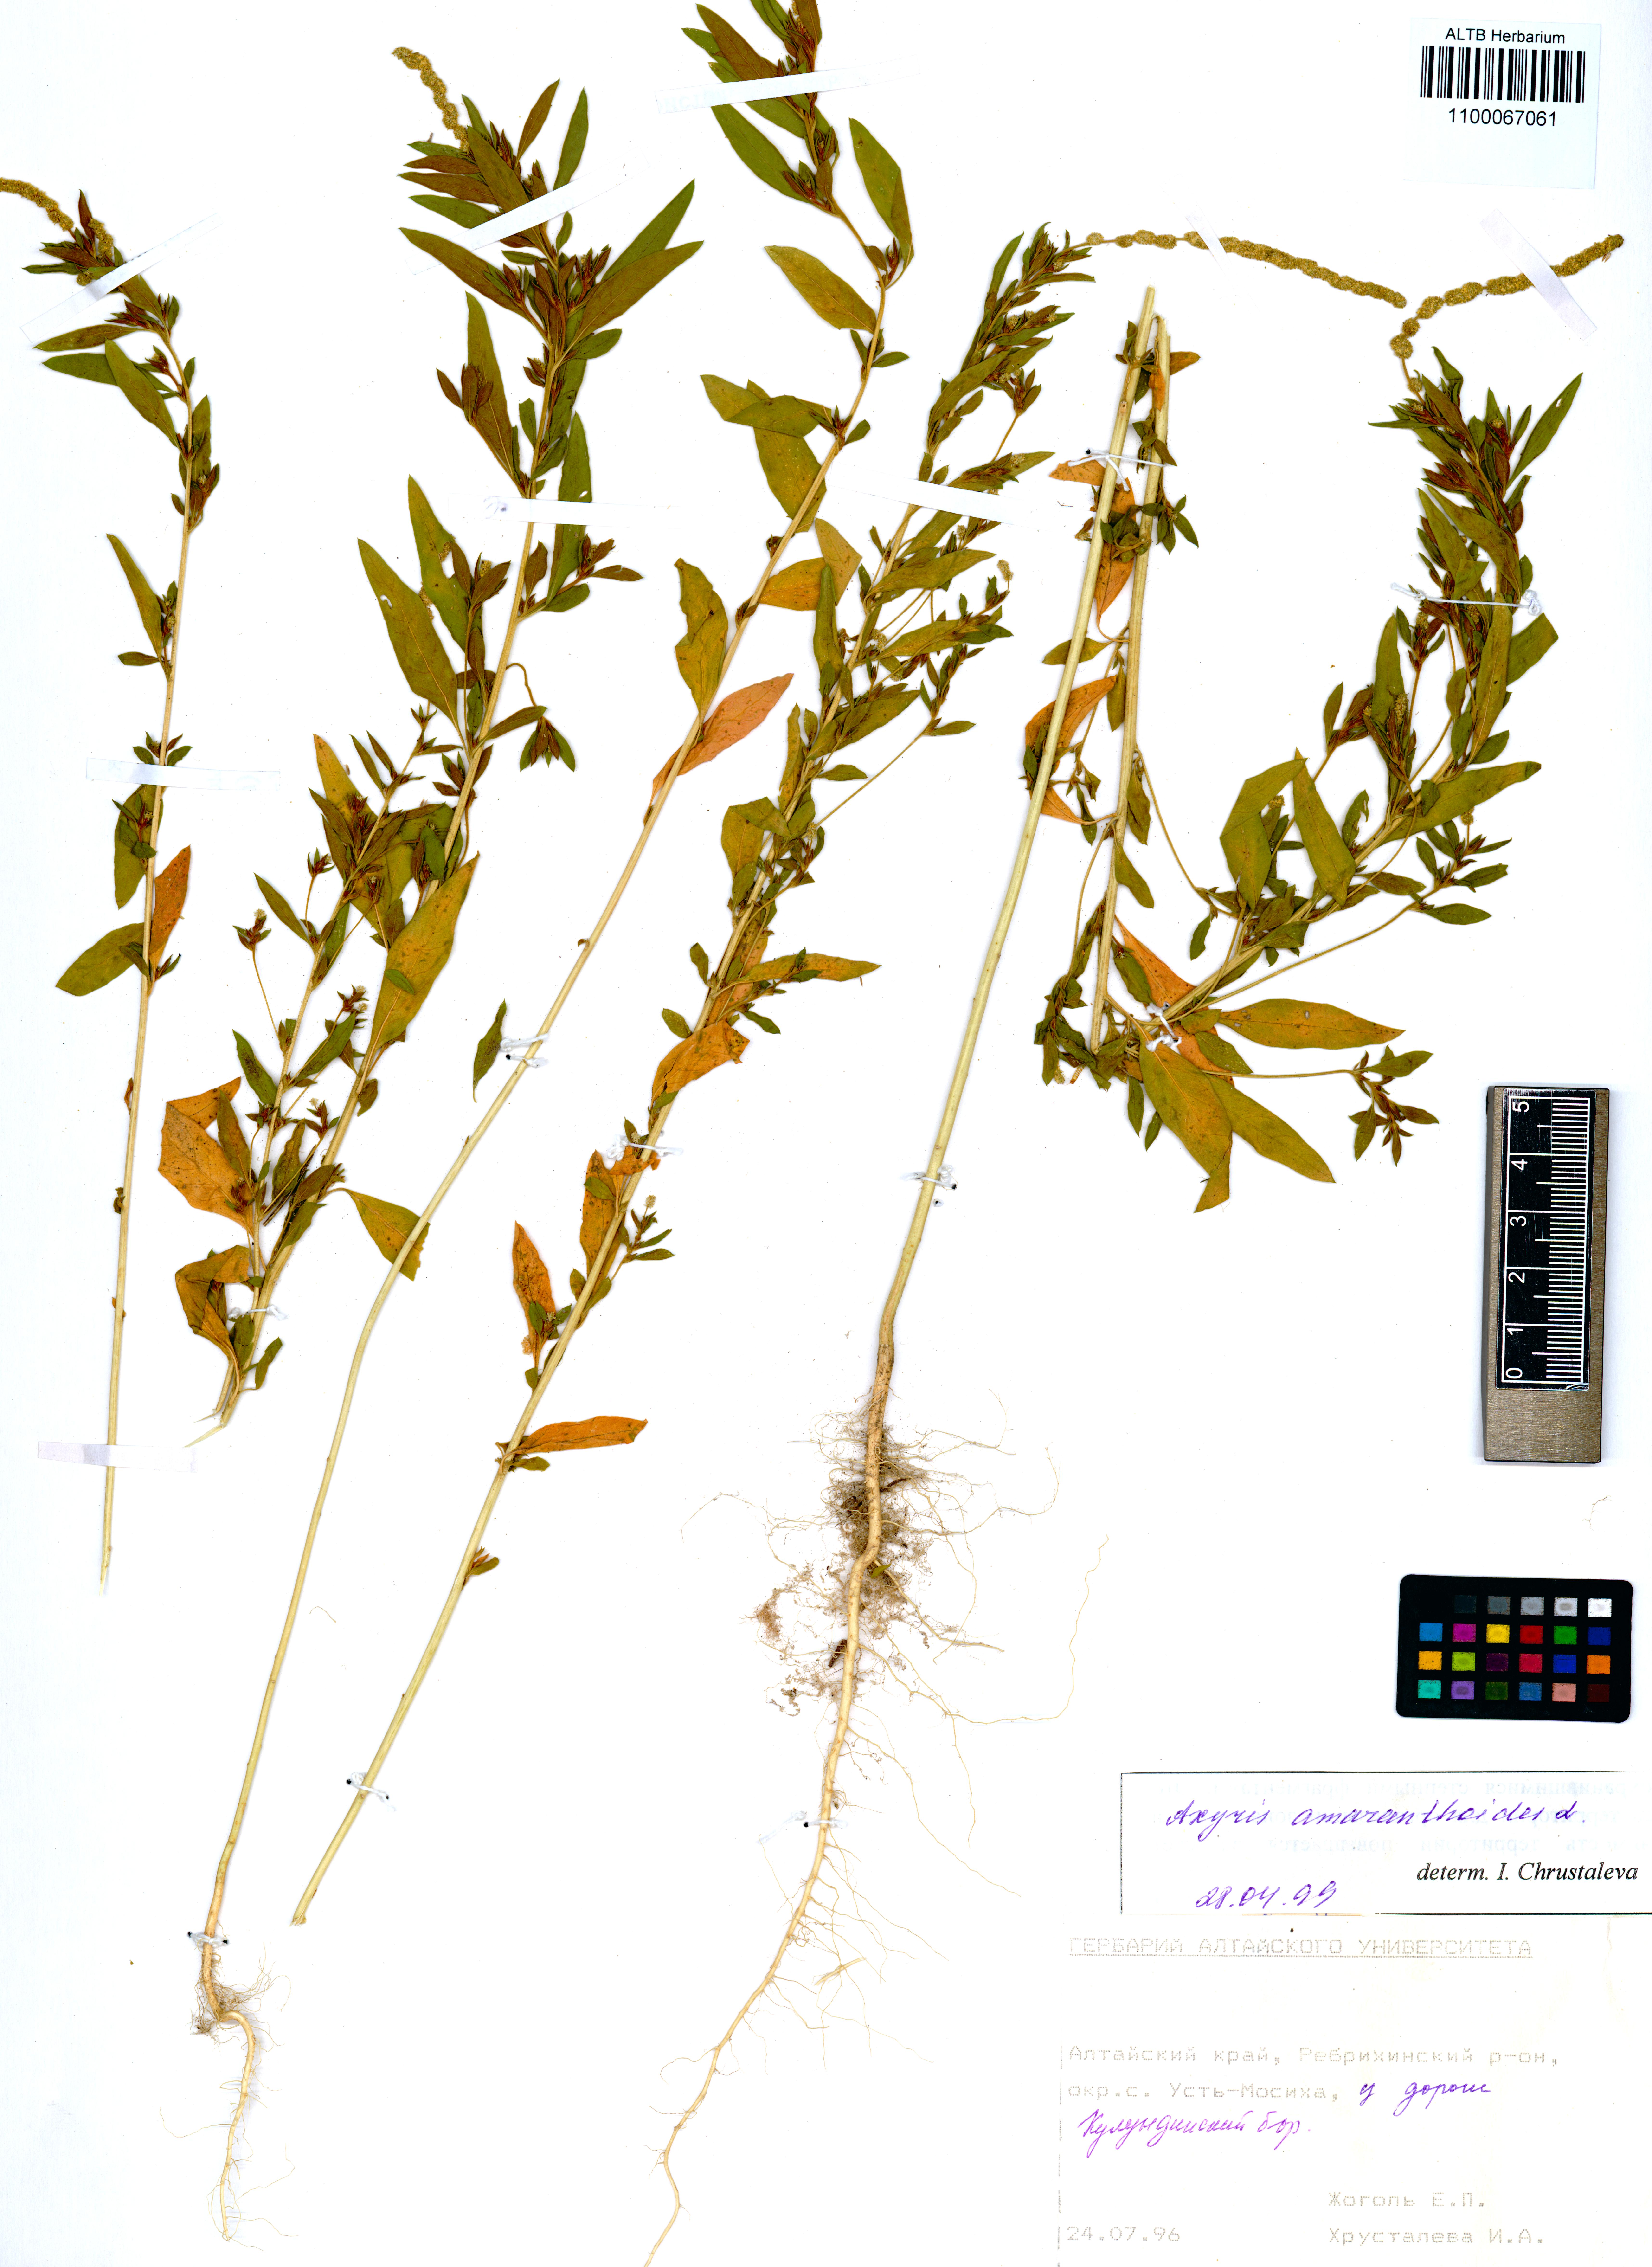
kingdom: Plantae
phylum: Tracheophyta
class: Magnoliopsida
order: Caryophyllales
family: Amaranthaceae
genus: Axyris
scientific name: Axyris amaranthoides
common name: Russian pigweed
